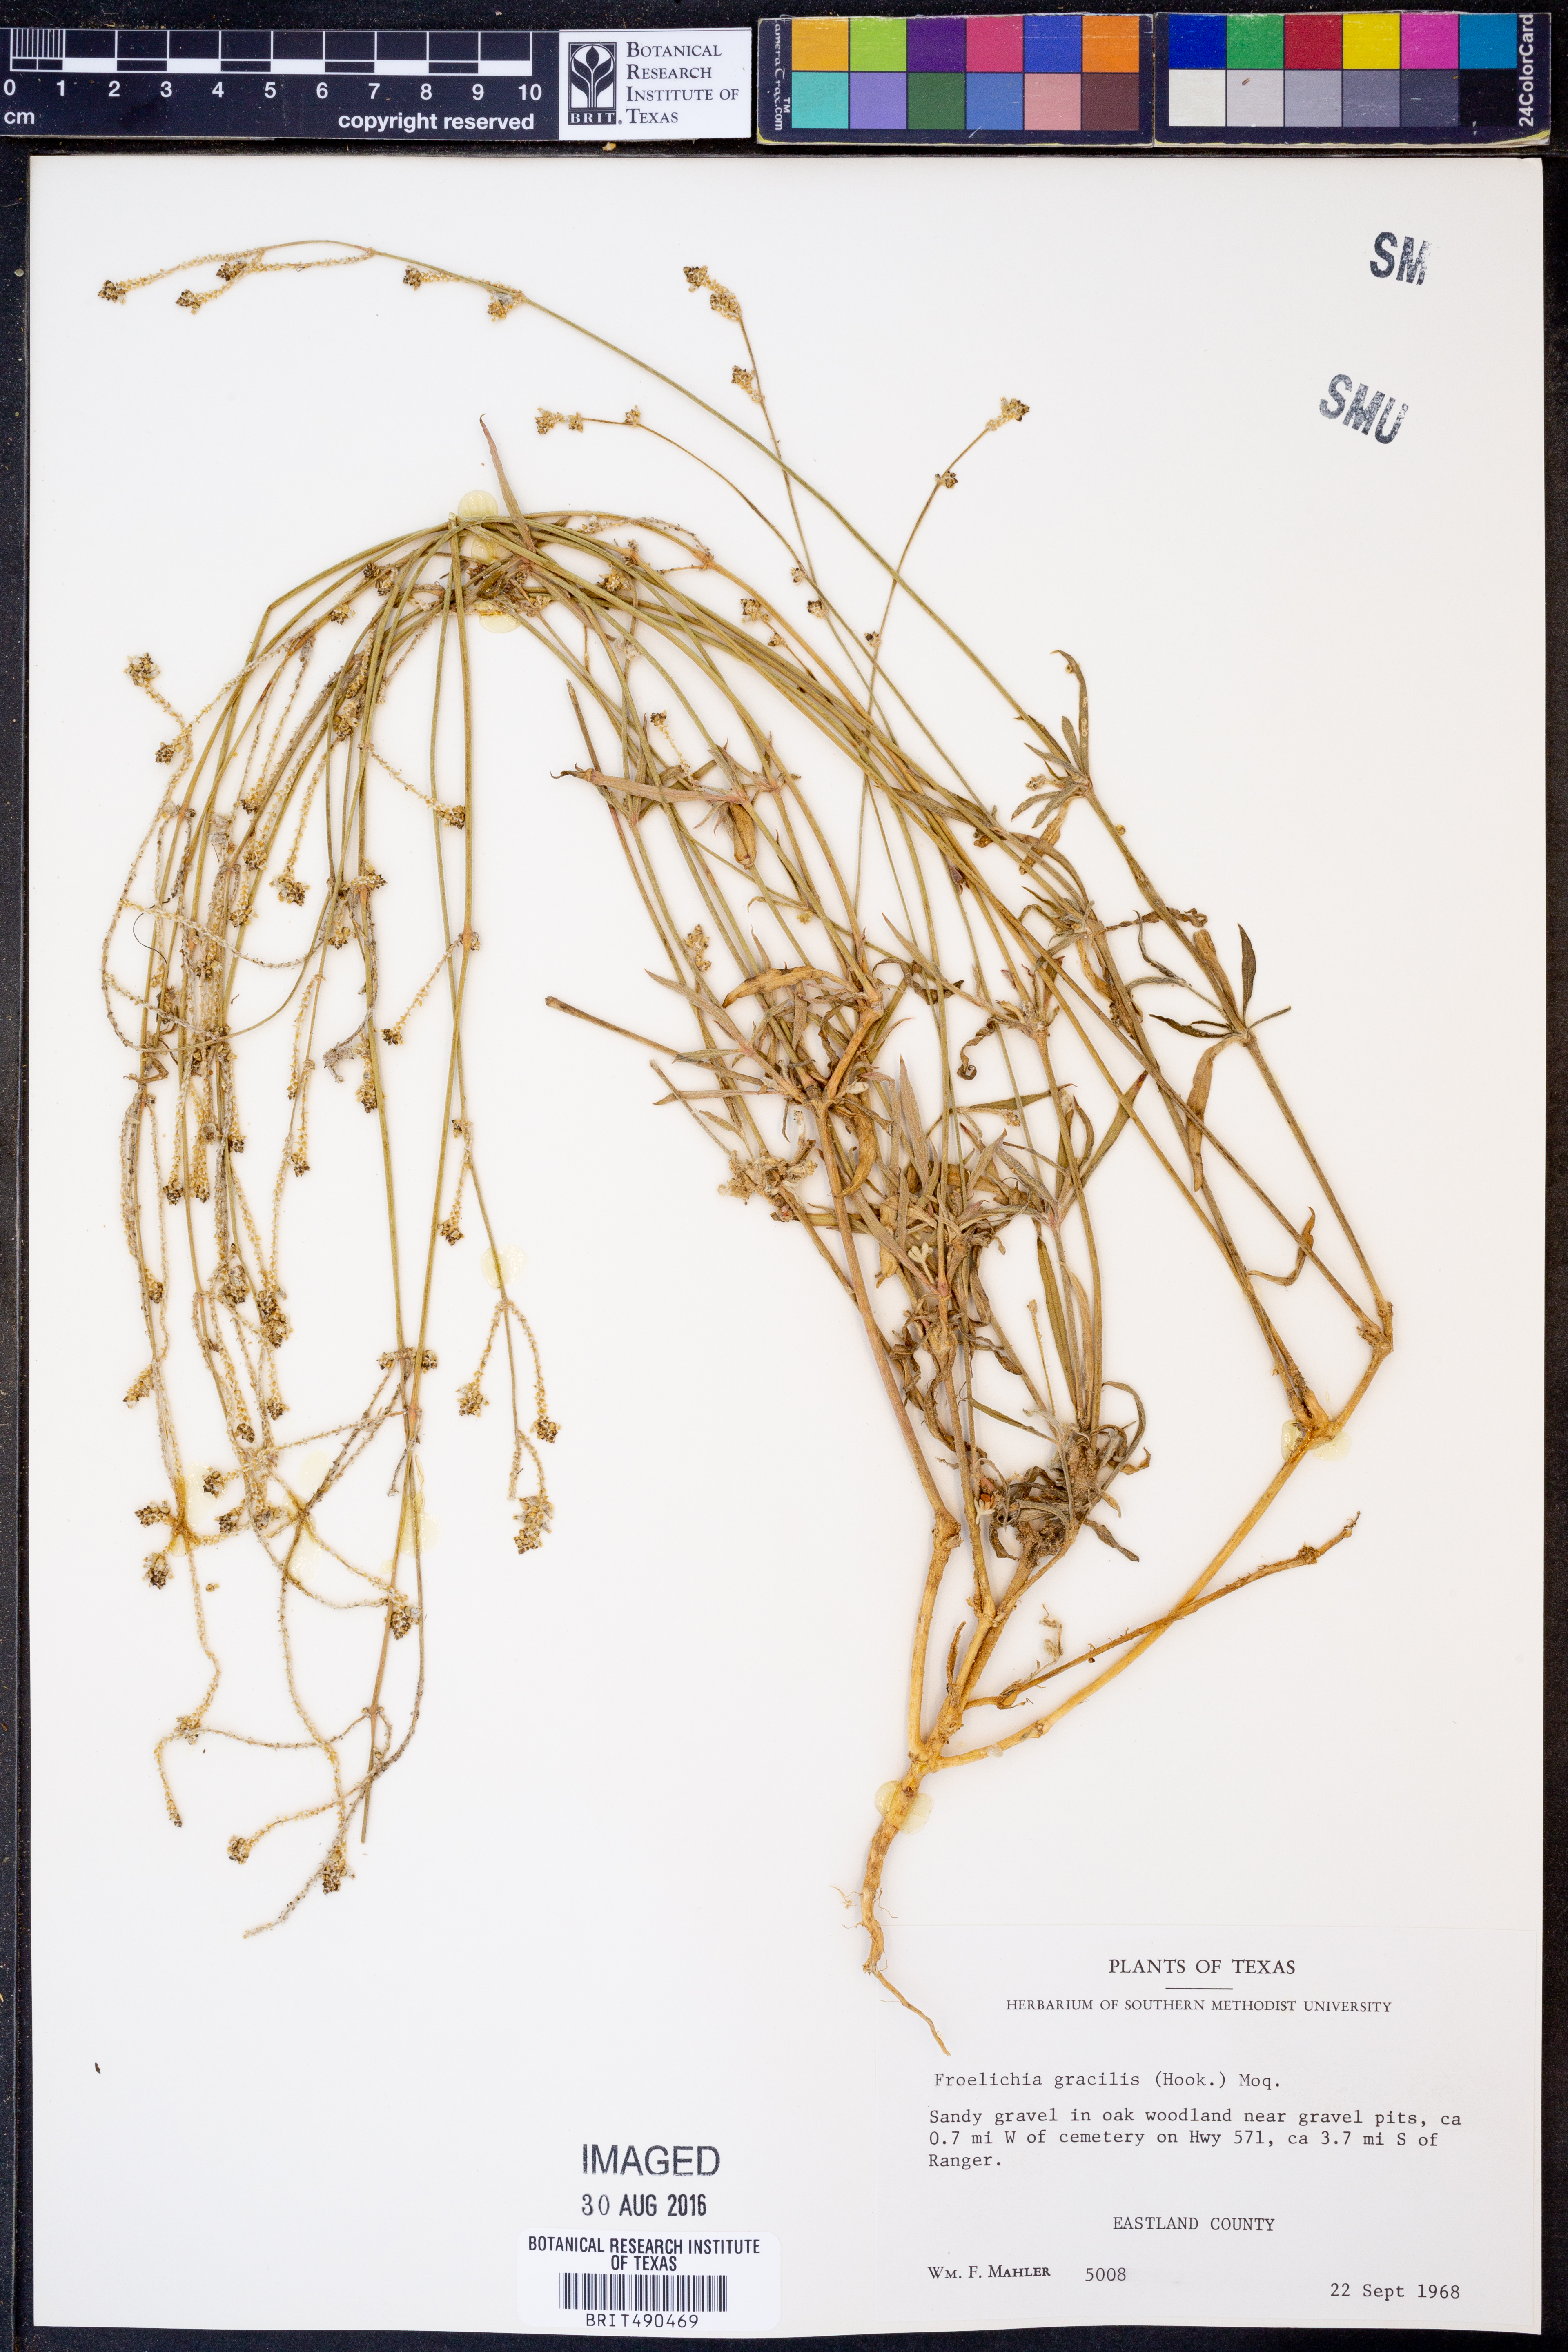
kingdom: Plantae
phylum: Tracheophyta
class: Magnoliopsida
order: Caryophyllales
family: Amaranthaceae
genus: Froelichia
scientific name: Froelichia gracilis
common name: Slender cottonweed
